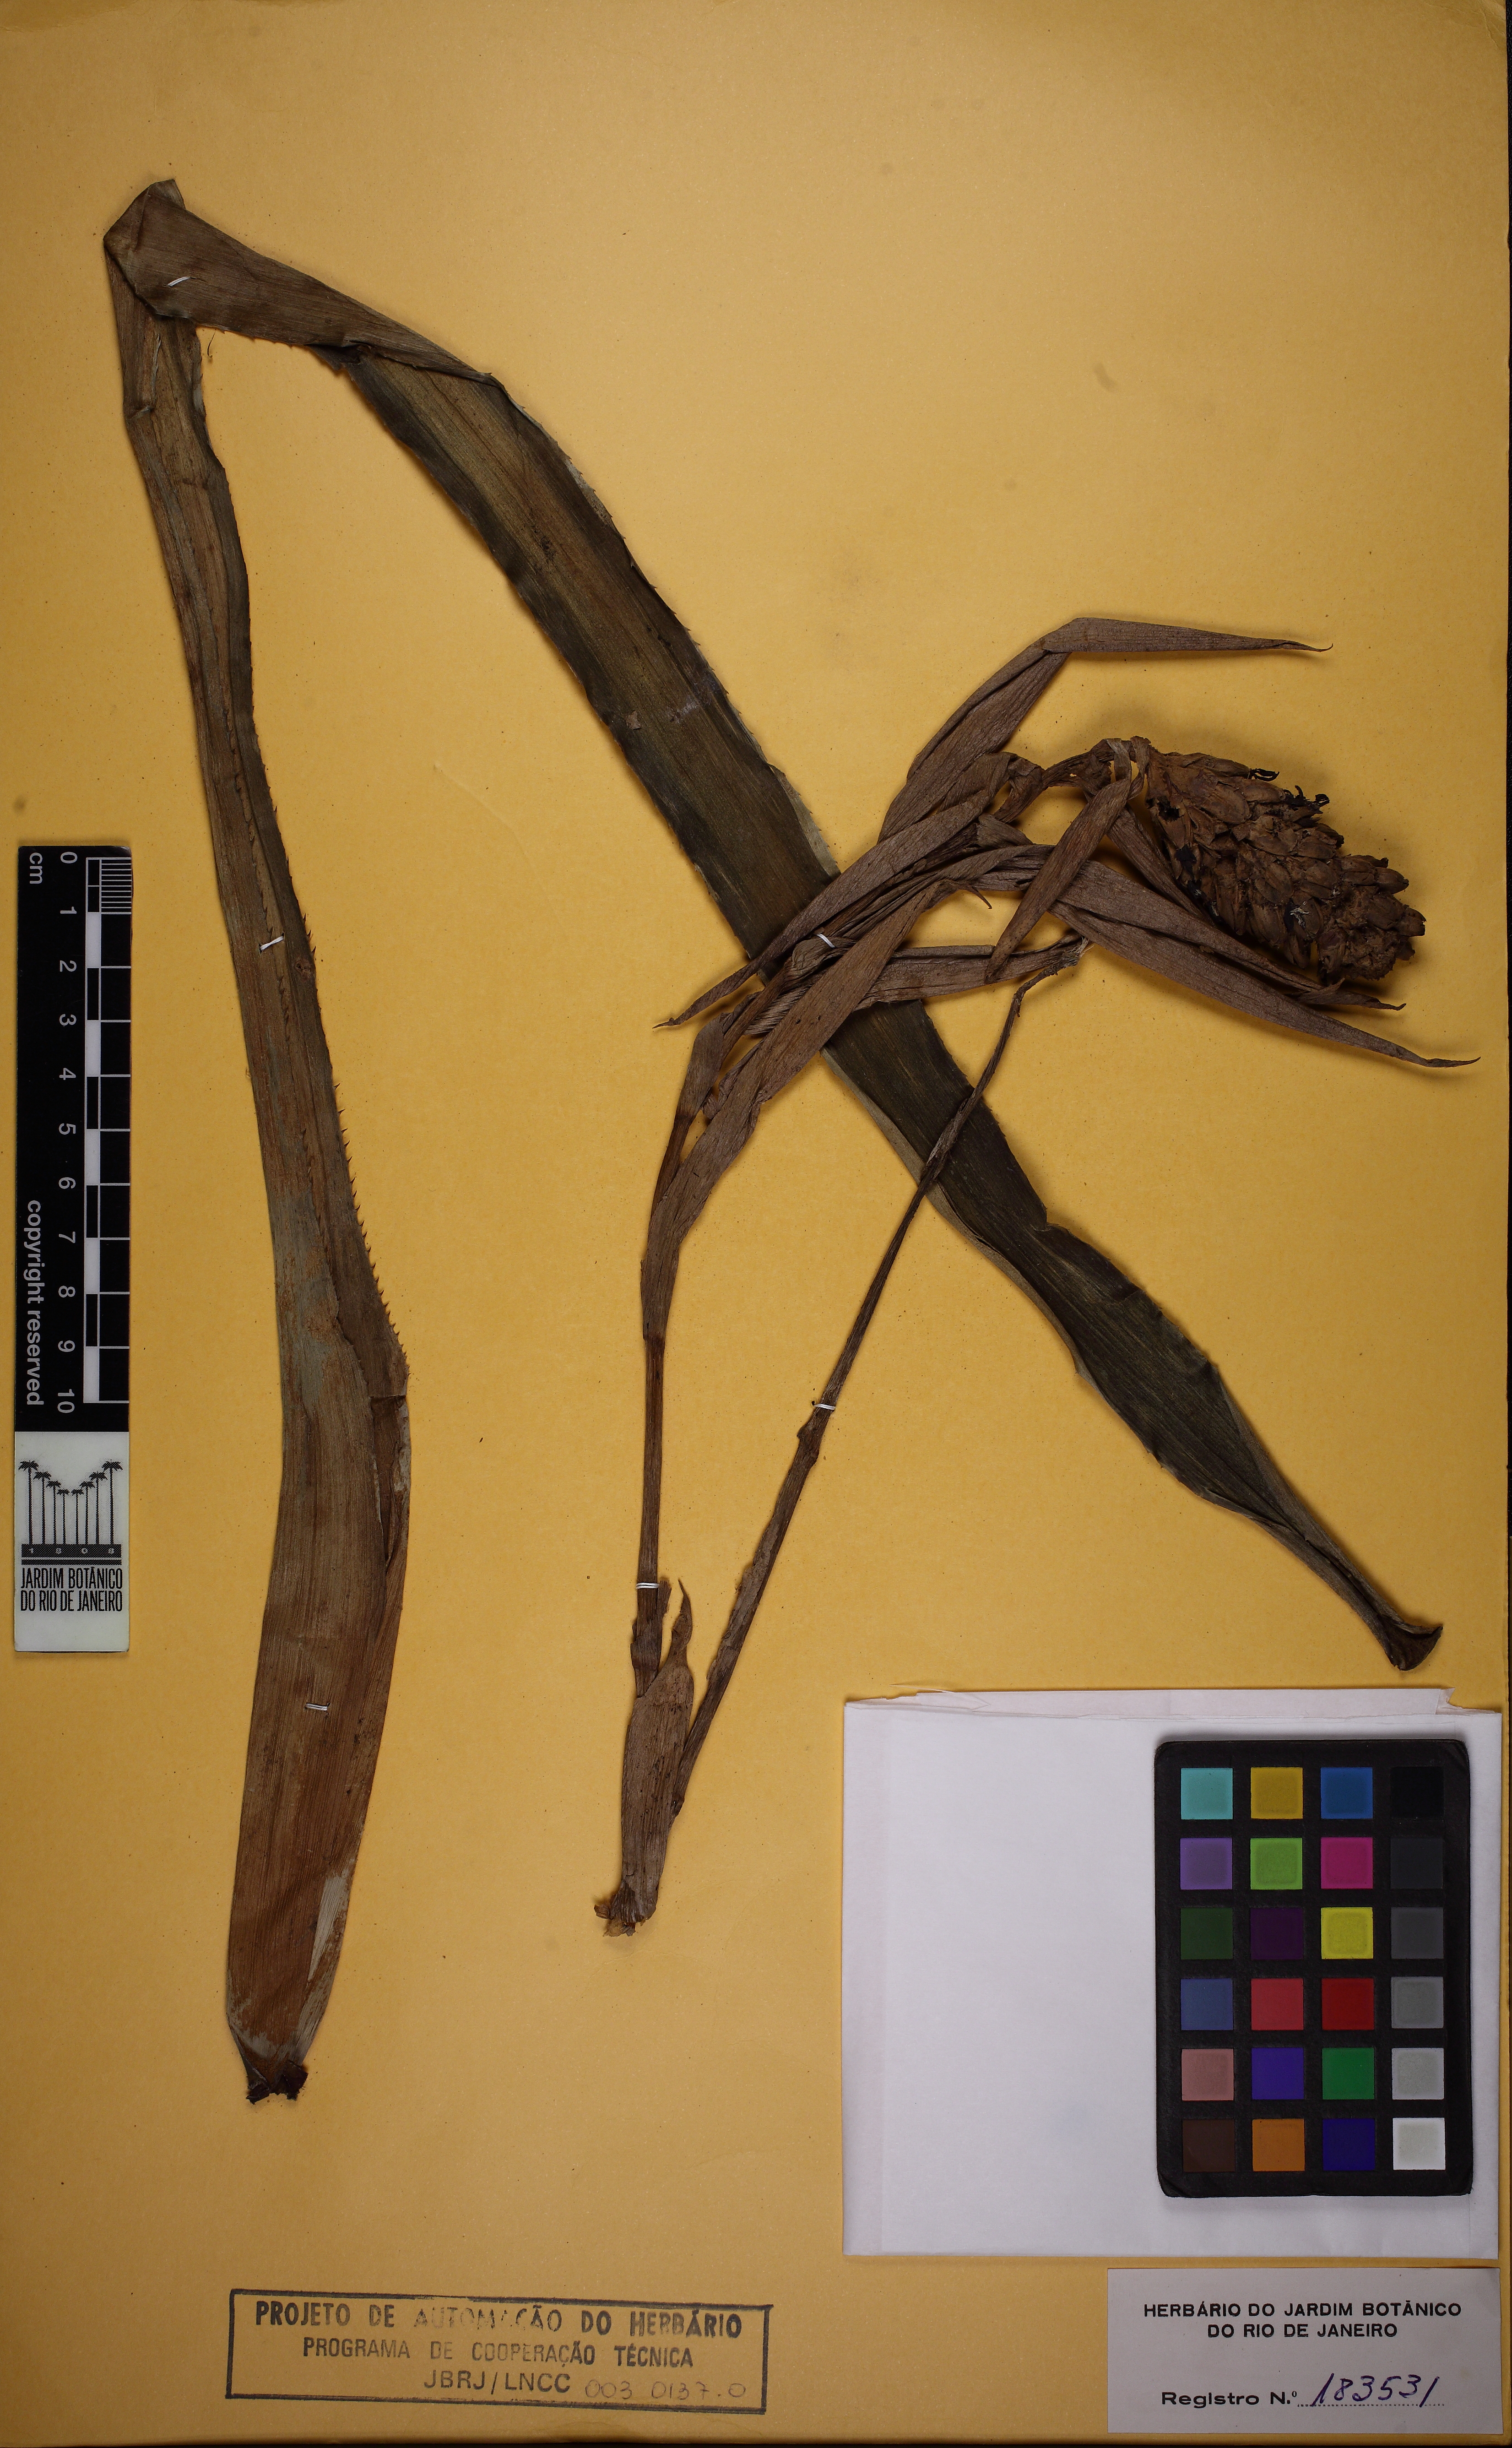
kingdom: Plantae
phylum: Tracheophyta
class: Liliopsida
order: Poales
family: Bromeliaceae
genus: Aechmea
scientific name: Aechmea maasii
